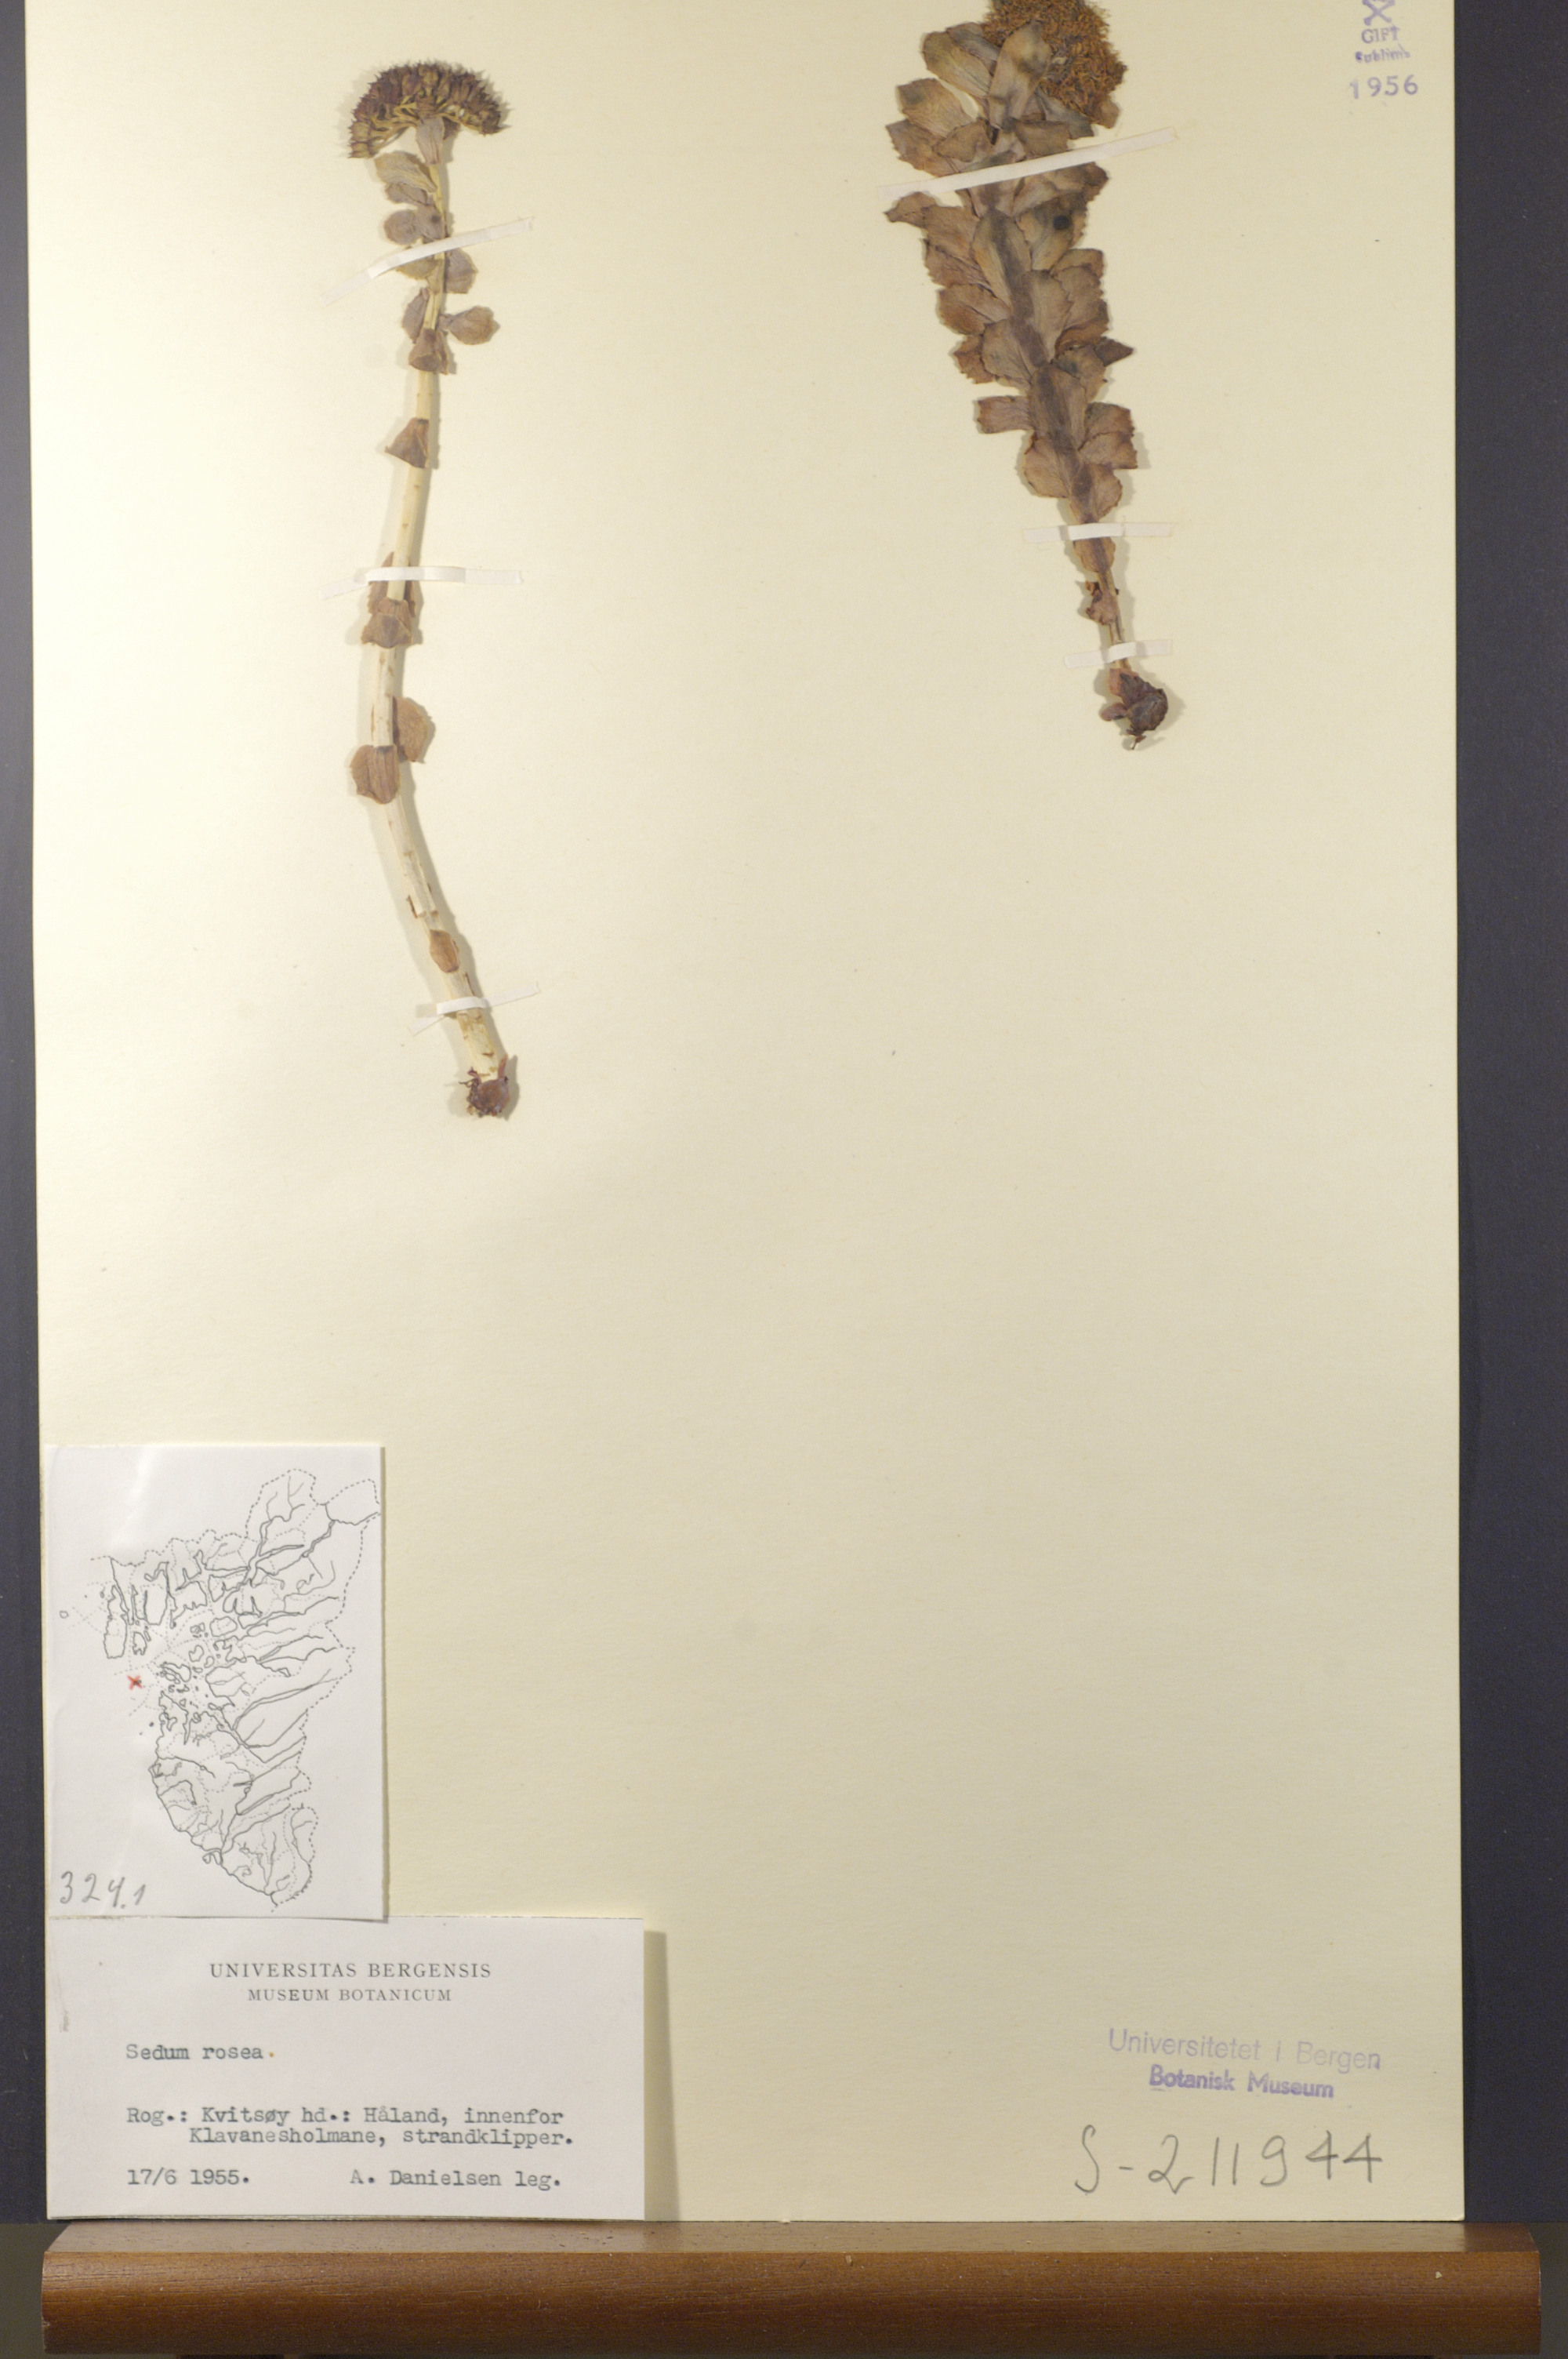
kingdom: Plantae
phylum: Tracheophyta
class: Magnoliopsida
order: Saxifragales
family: Crassulaceae
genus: Rhodiola
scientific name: Rhodiola rosea
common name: Roseroot
